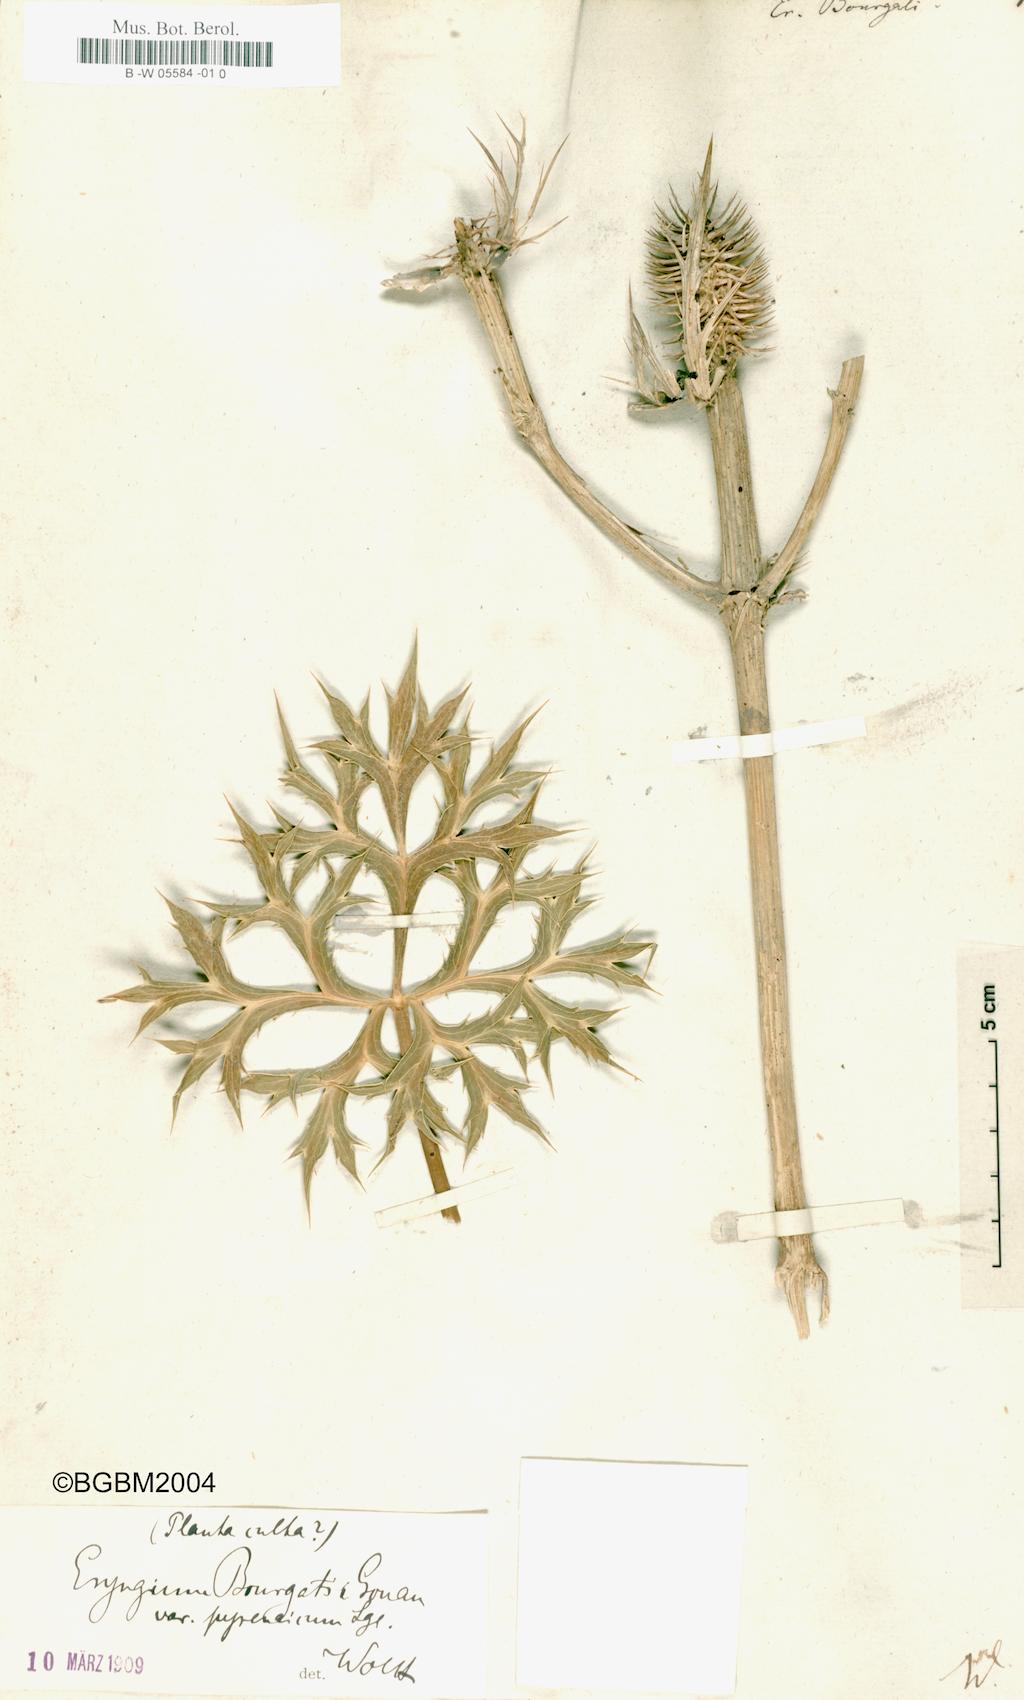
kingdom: Plantae
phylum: Tracheophyta
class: Magnoliopsida
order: Apiales
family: Apiaceae
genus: Eryngium
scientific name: Eryngium bourgatii
